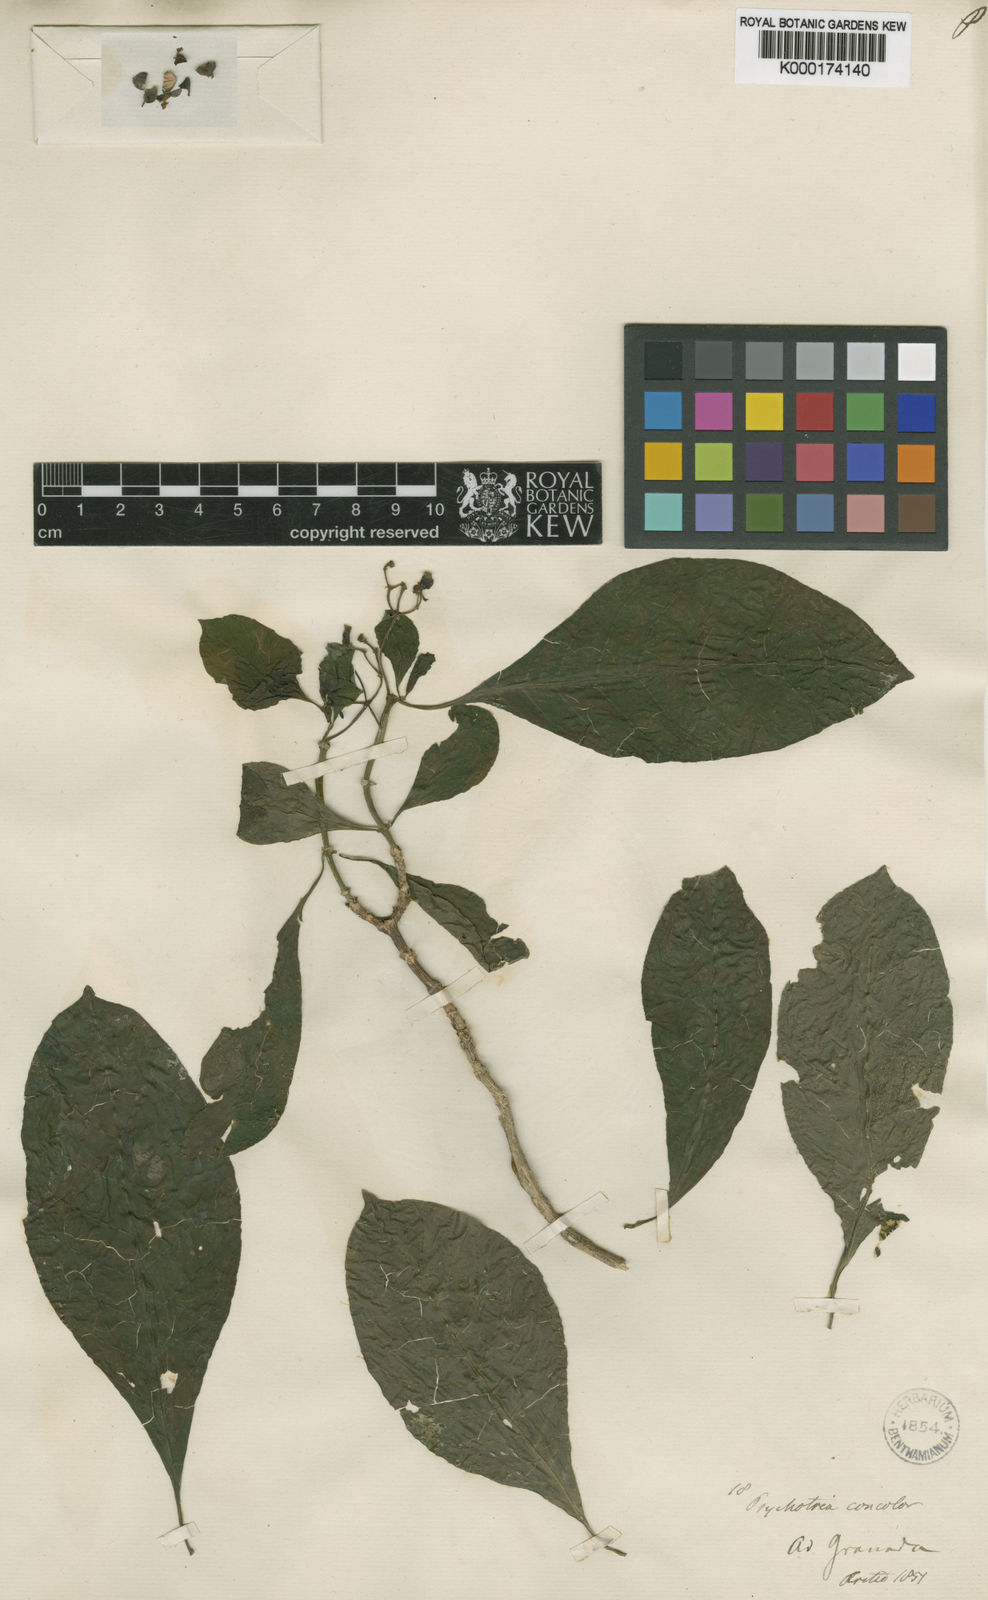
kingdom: Plantae
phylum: Tracheophyta
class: Magnoliopsida
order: Gentianales
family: Rubiaceae
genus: Psychotria
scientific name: Psychotria concolor
